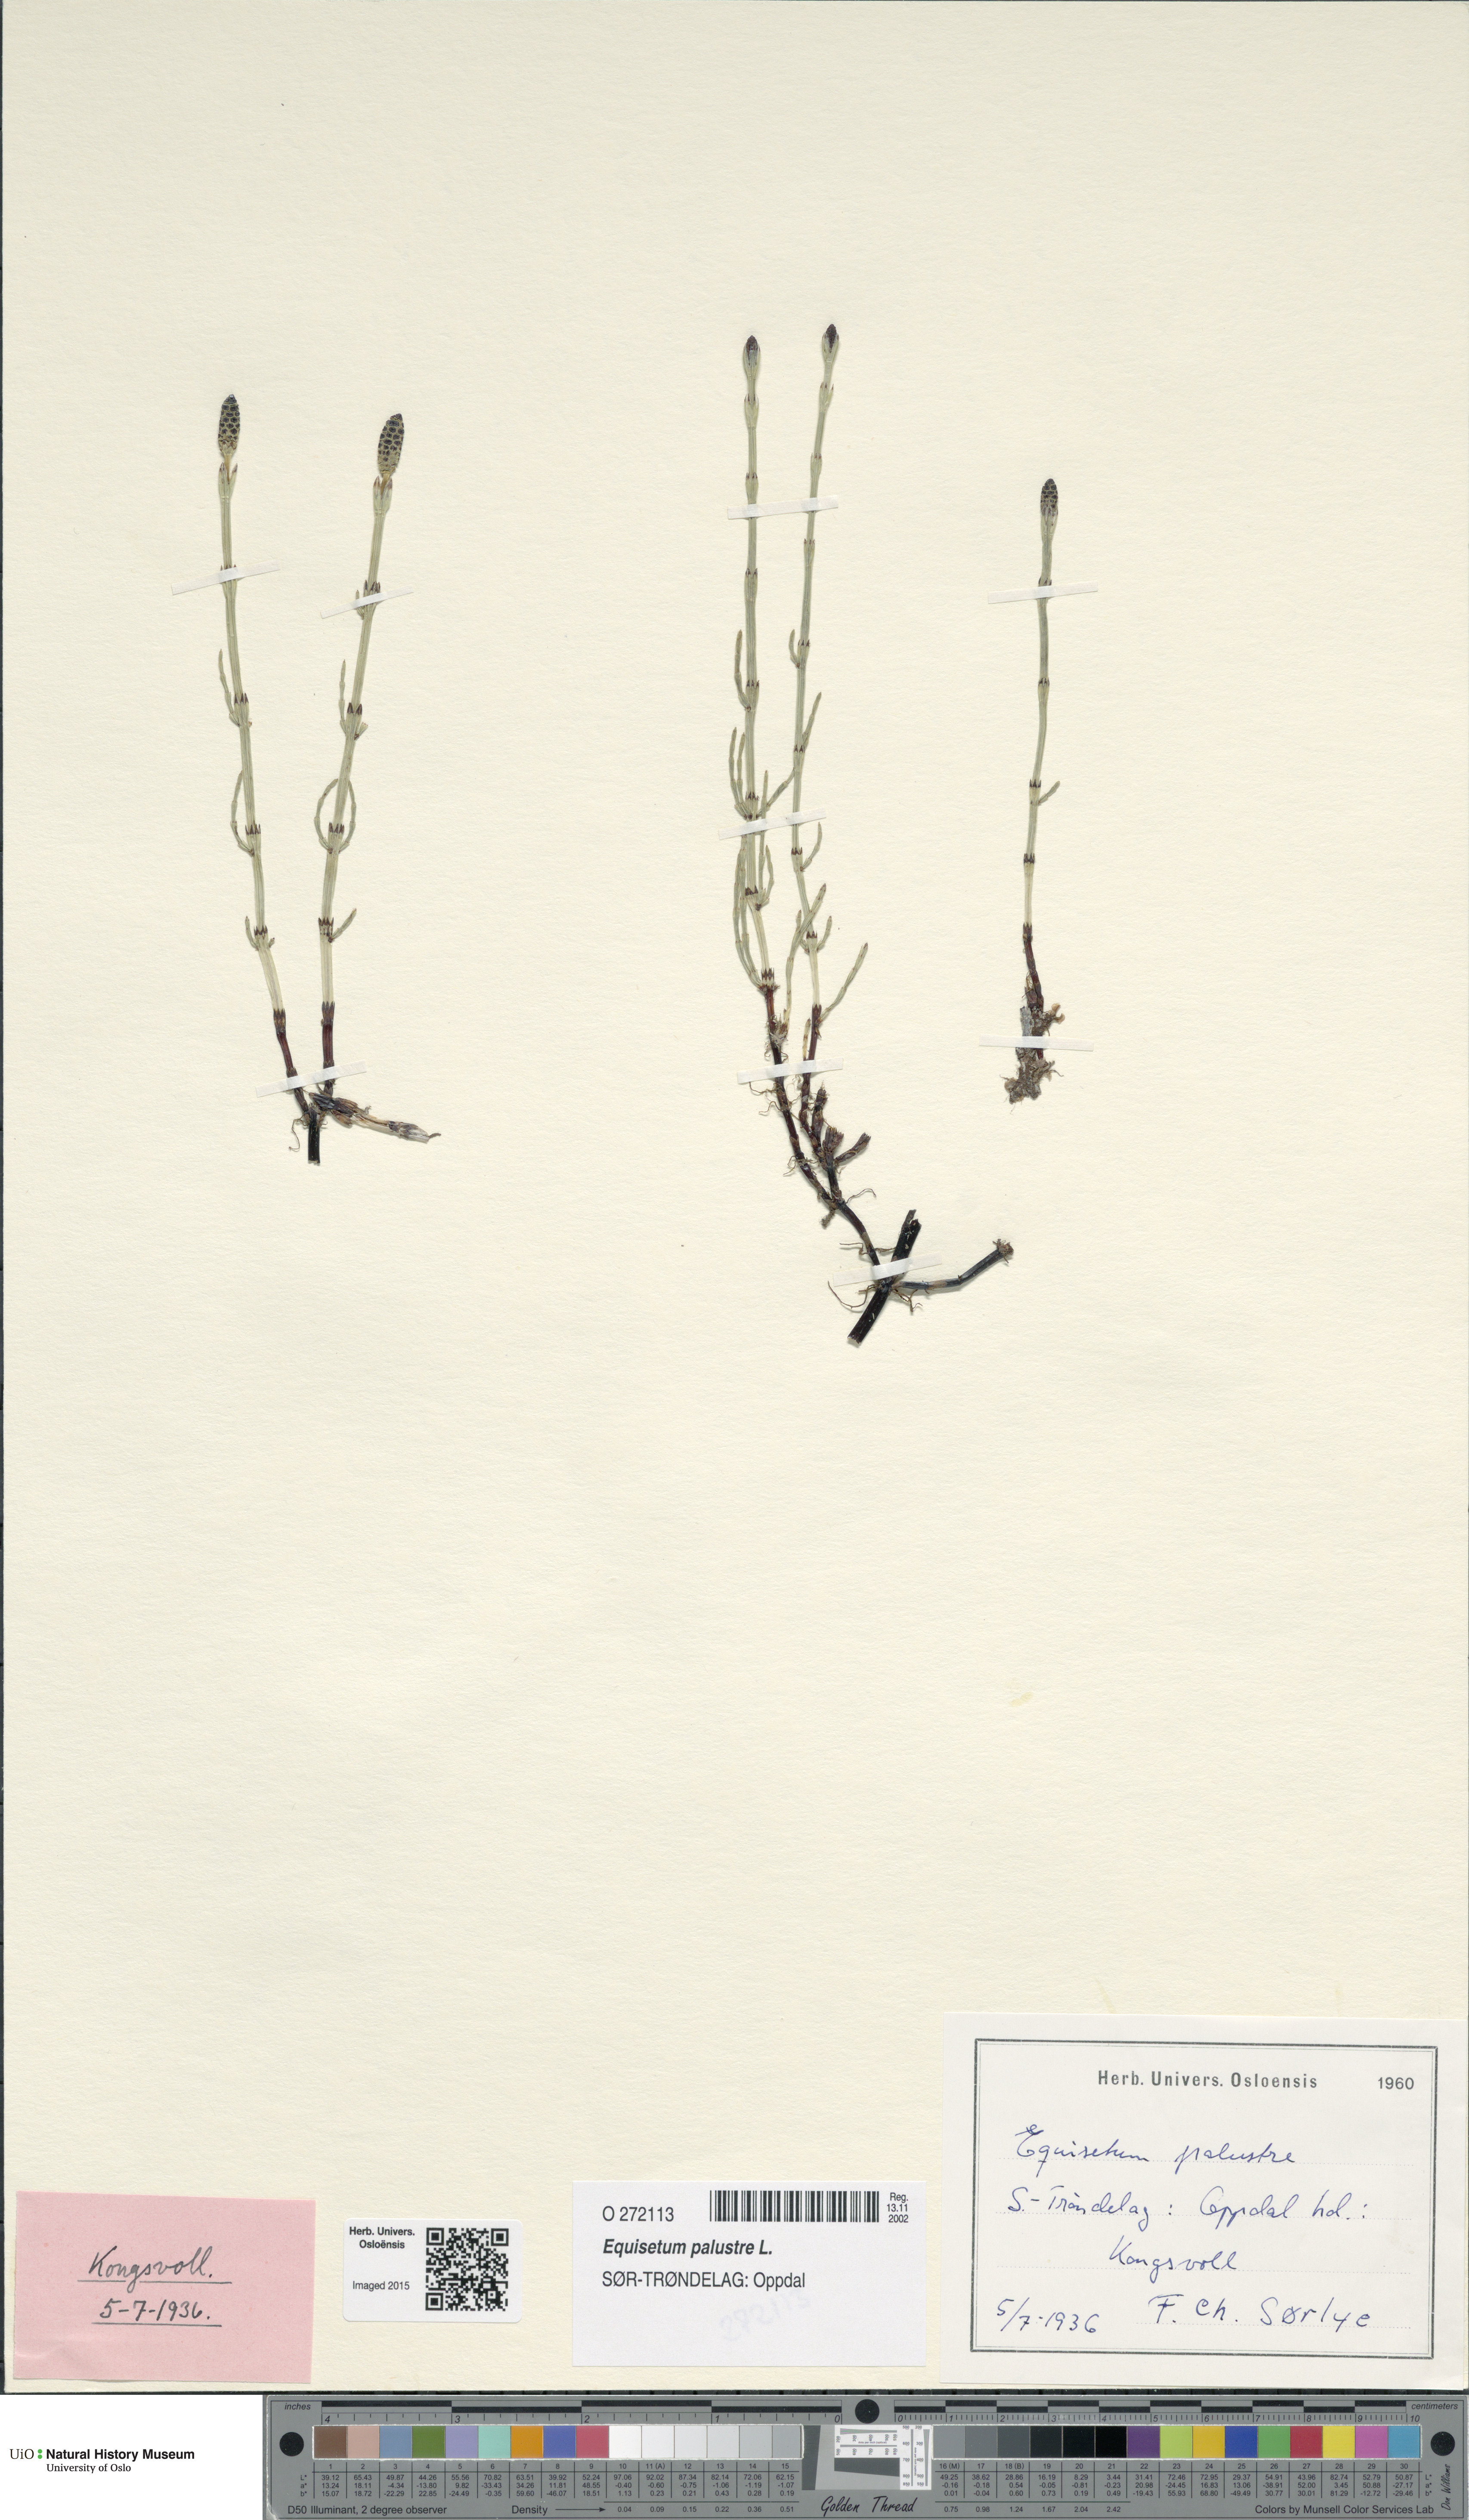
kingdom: Plantae
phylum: Tracheophyta
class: Polypodiopsida
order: Equisetales
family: Equisetaceae
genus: Equisetum
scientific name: Equisetum palustre
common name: Marsh horsetail
